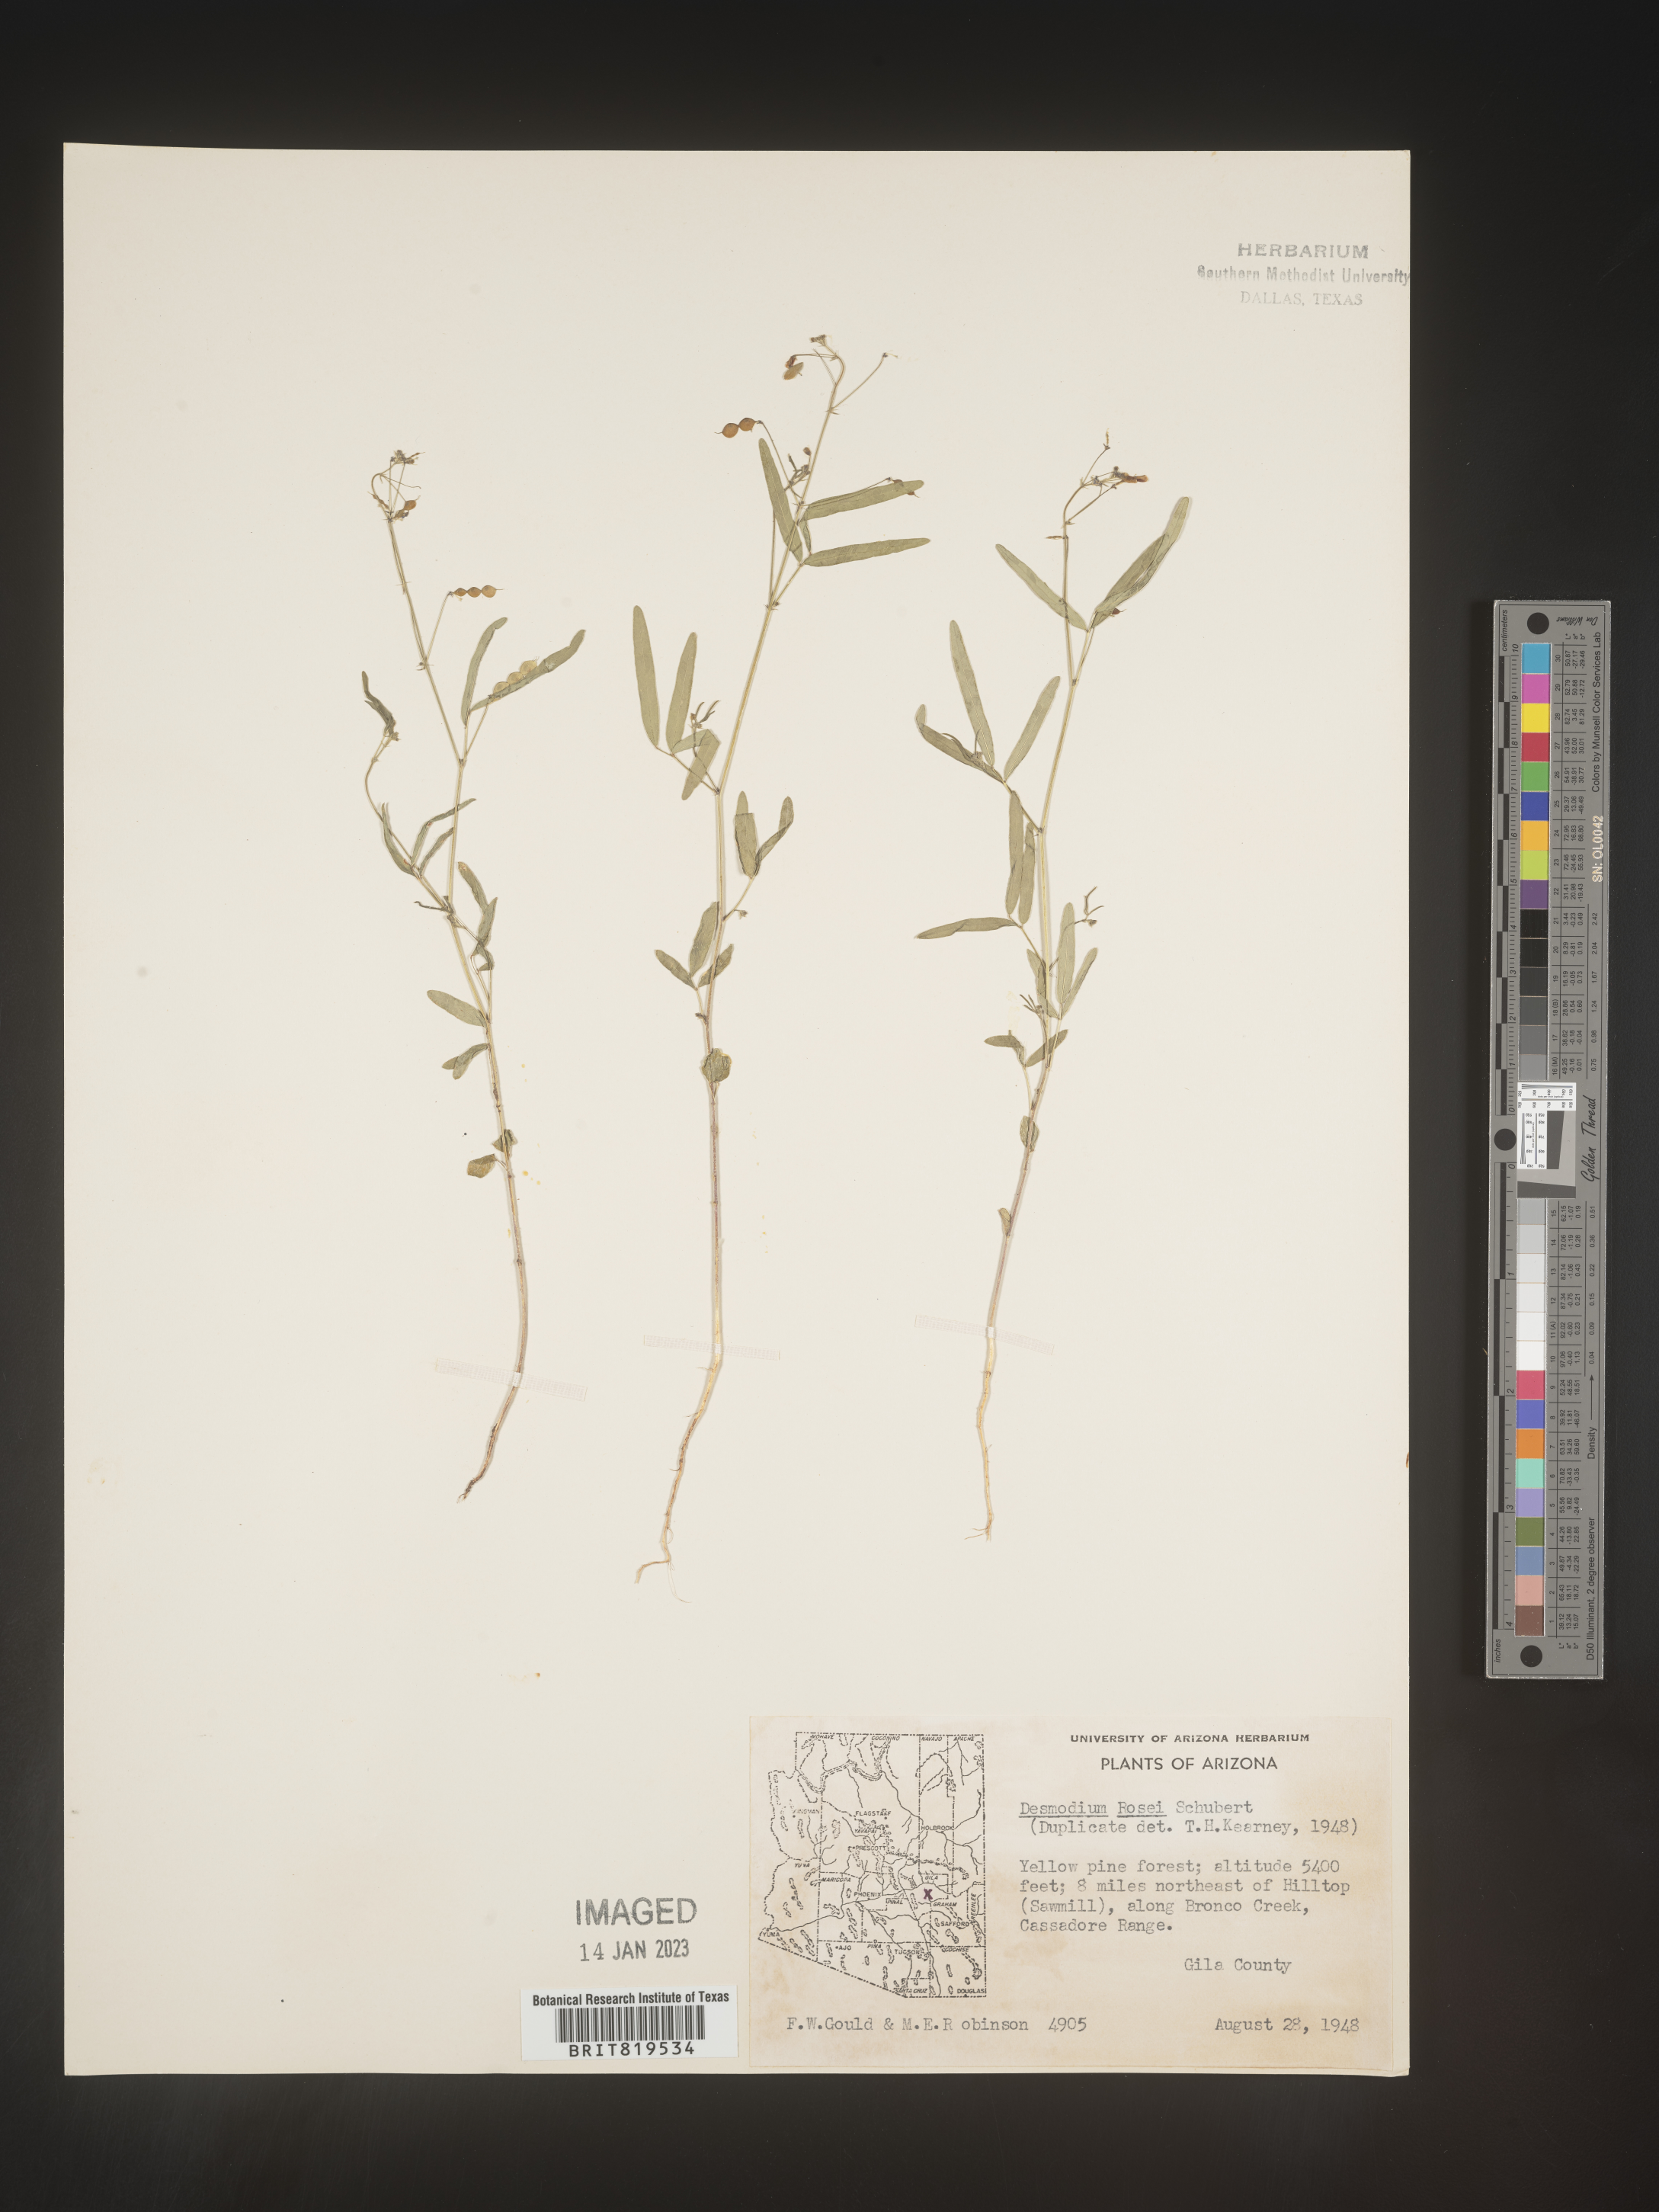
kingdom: Plantae
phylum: Tracheophyta
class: Magnoliopsida
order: Fabales
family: Fabaceae
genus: Desmodium
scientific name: Desmodium
